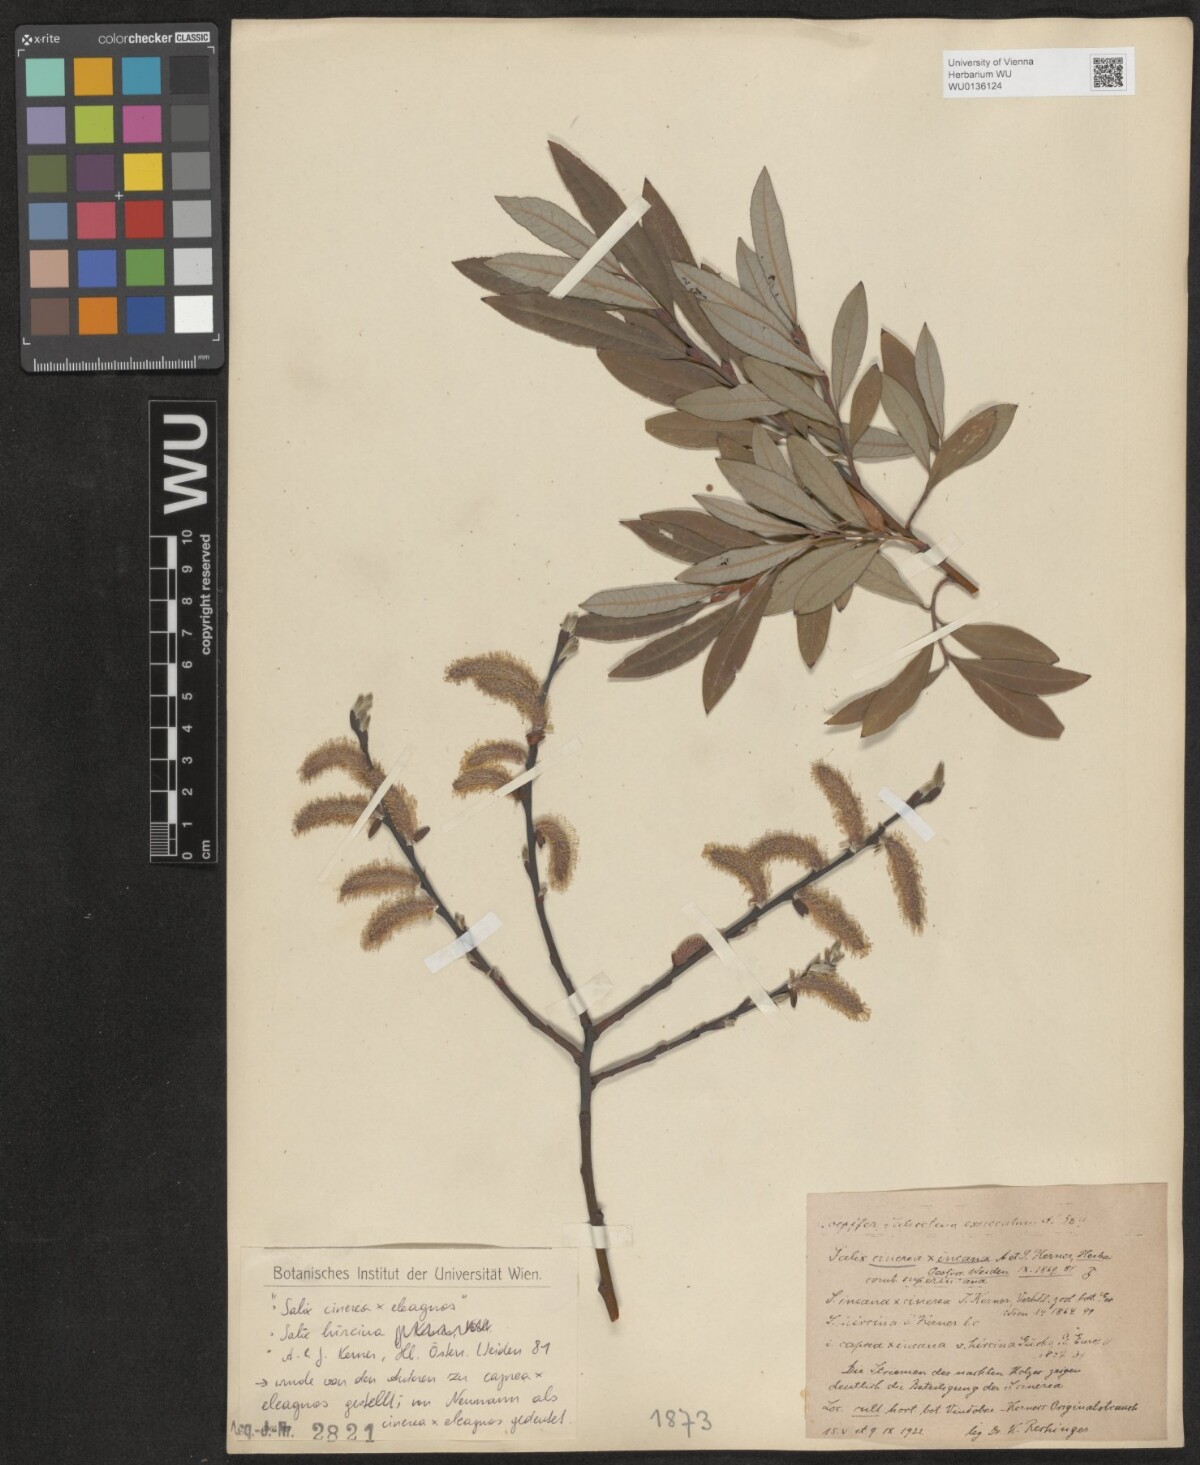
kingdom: Plantae
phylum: Tracheophyta
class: Magnoliopsida
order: Malpighiales
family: Salicaceae
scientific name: Salicaceae
